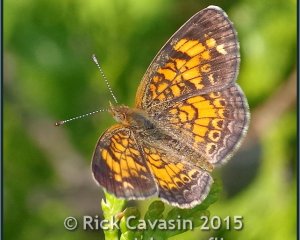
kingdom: Animalia
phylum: Arthropoda
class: Insecta
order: Lepidoptera
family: Nymphalidae
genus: Phyciodes
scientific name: Phyciodes tharos
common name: Pearl Crescent
